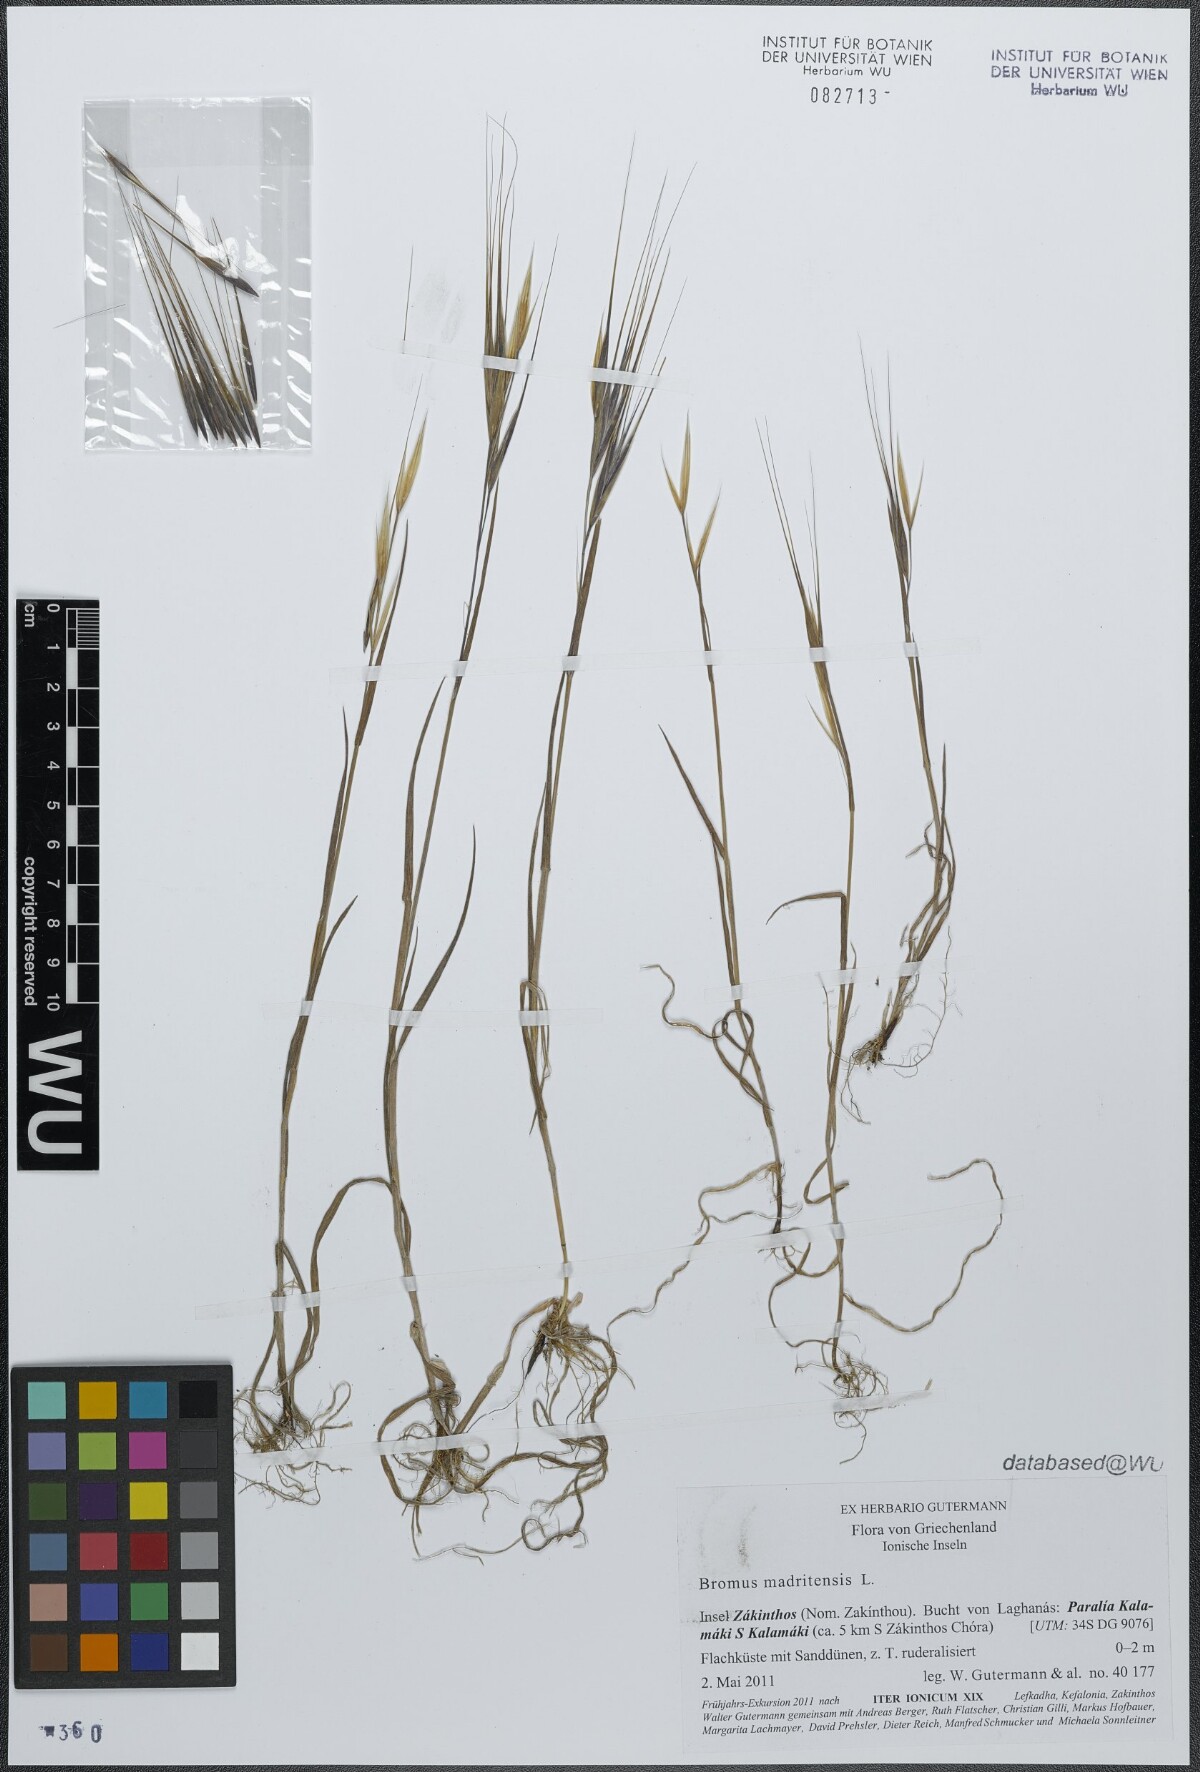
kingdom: Plantae
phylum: Tracheophyta
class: Liliopsida
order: Poales
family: Poaceae
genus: Bromus
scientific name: Bromus rigidus
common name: Ripgut brome
